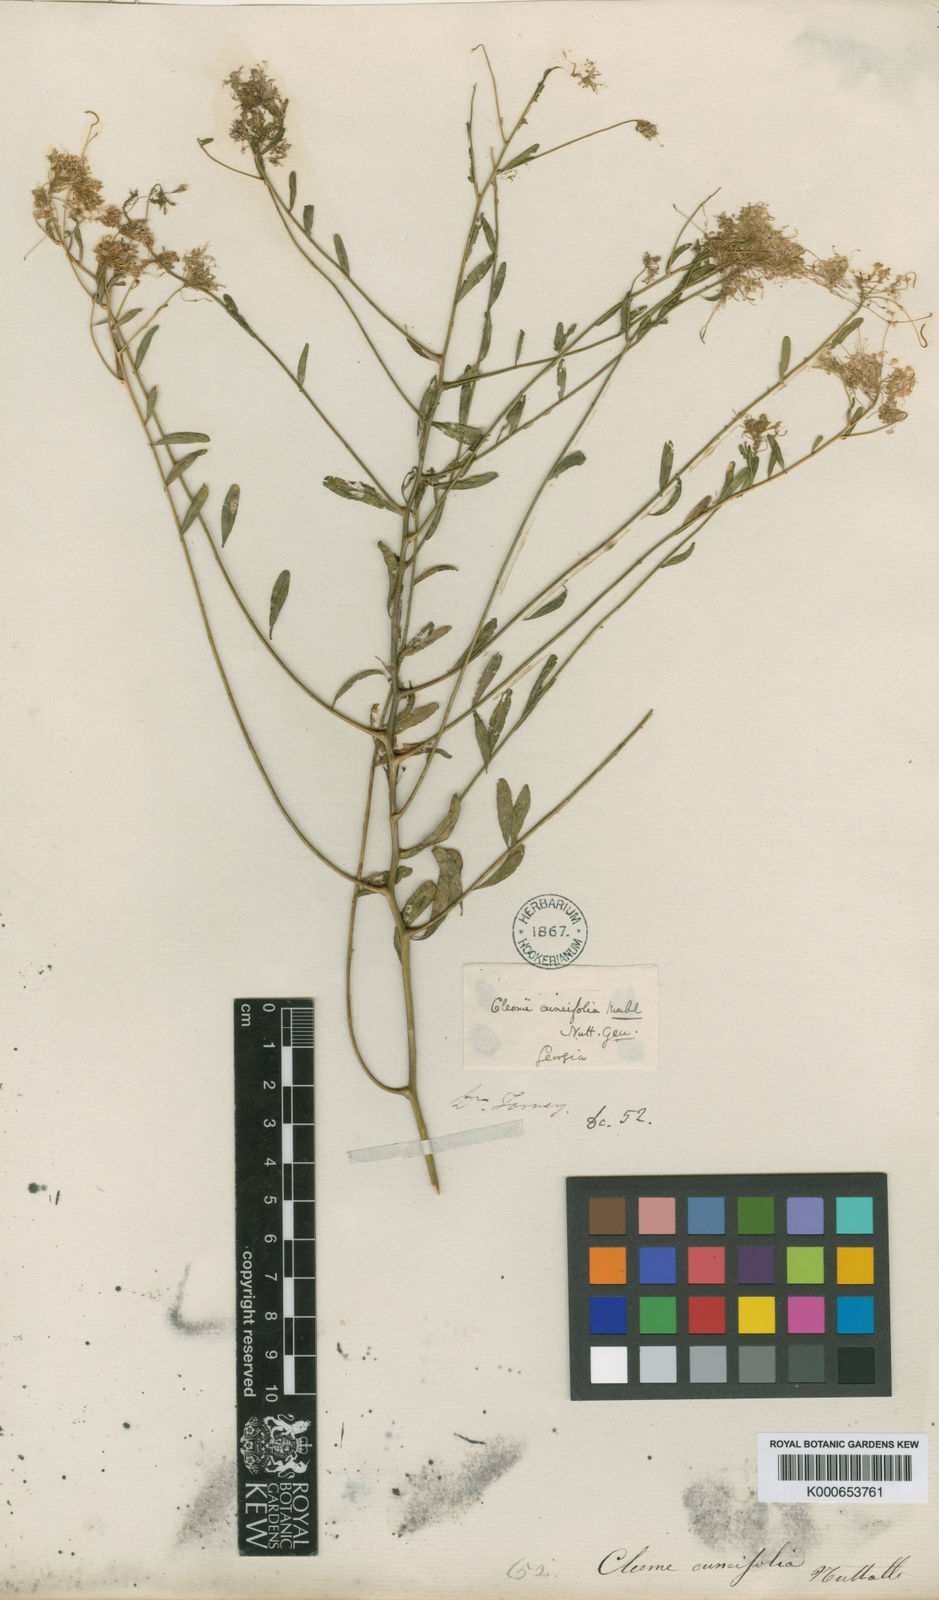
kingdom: Plantae
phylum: Tracheophyta
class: Magnoliopsida
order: Brassicales
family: Brassicaceae
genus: Warea
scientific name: Warea cuneifolia
